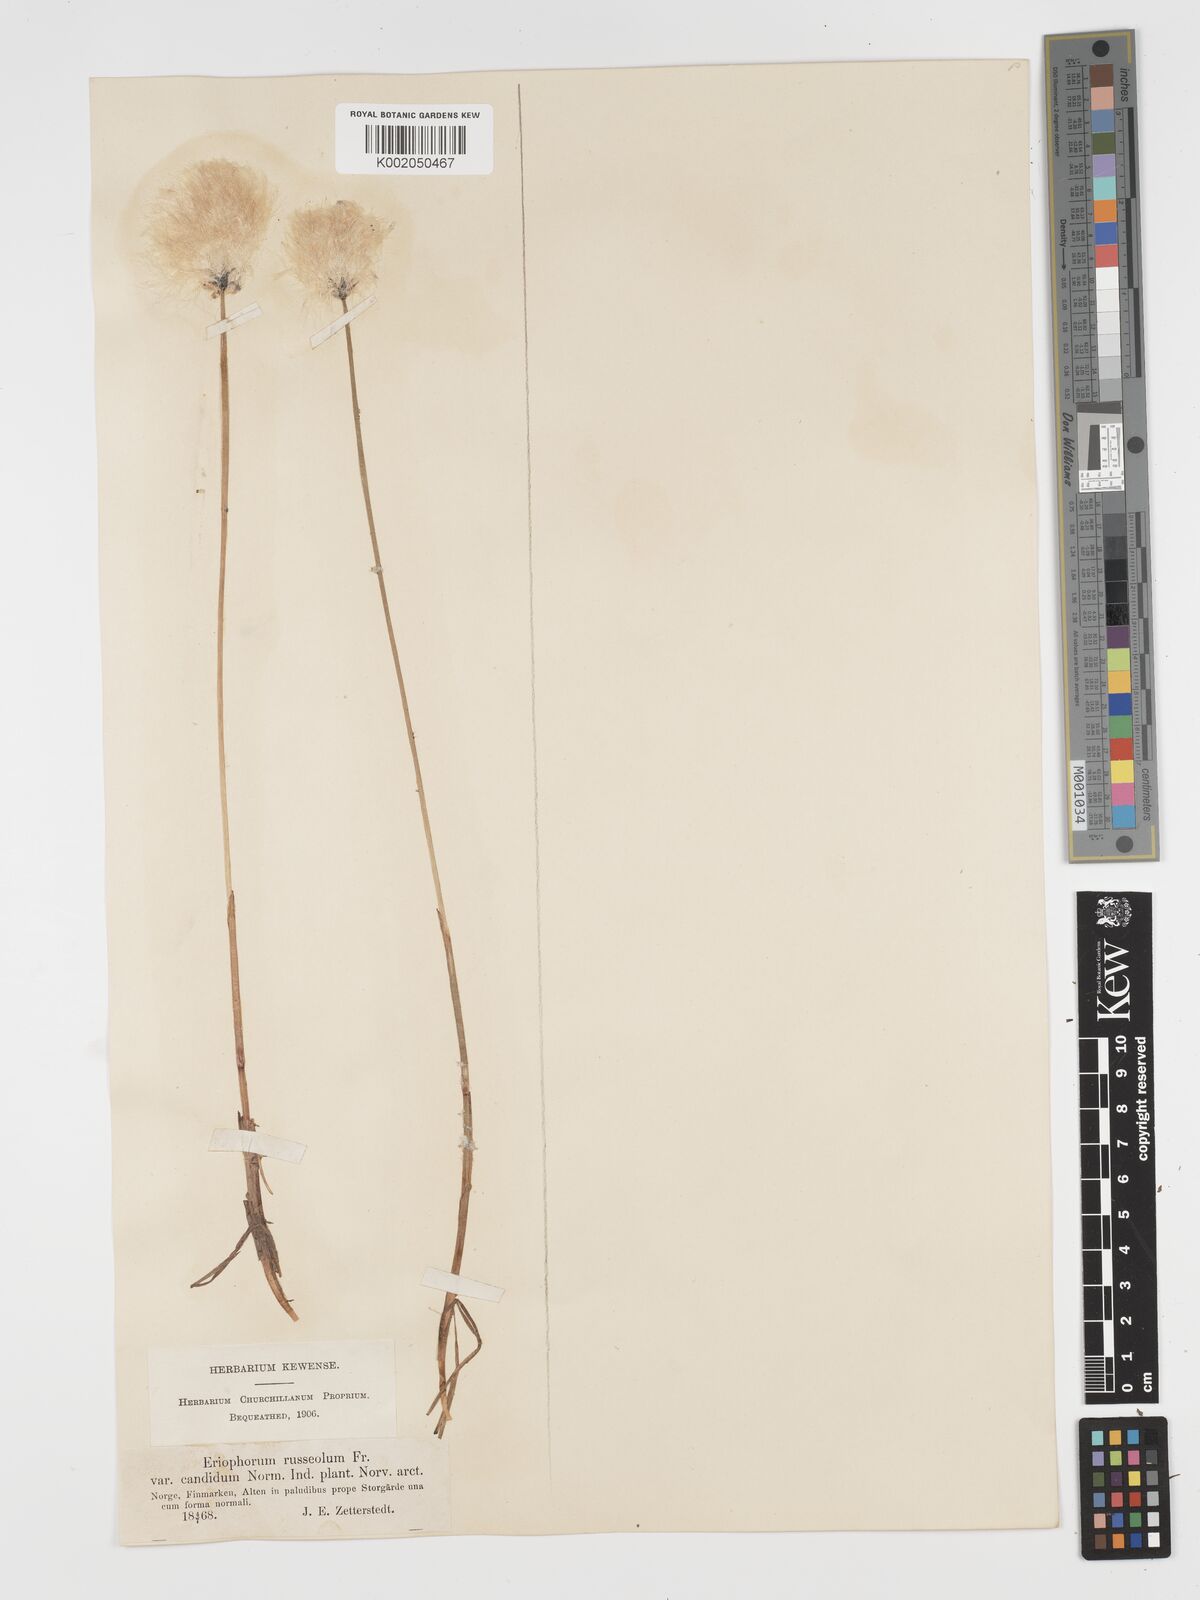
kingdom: Plantae
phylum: Tracheophyta
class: Liliopsida
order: Poales
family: Cyperaceae
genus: Eriophorum
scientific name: Eriophorum scheuchzeri
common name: Scheuchzer's cottongrass
